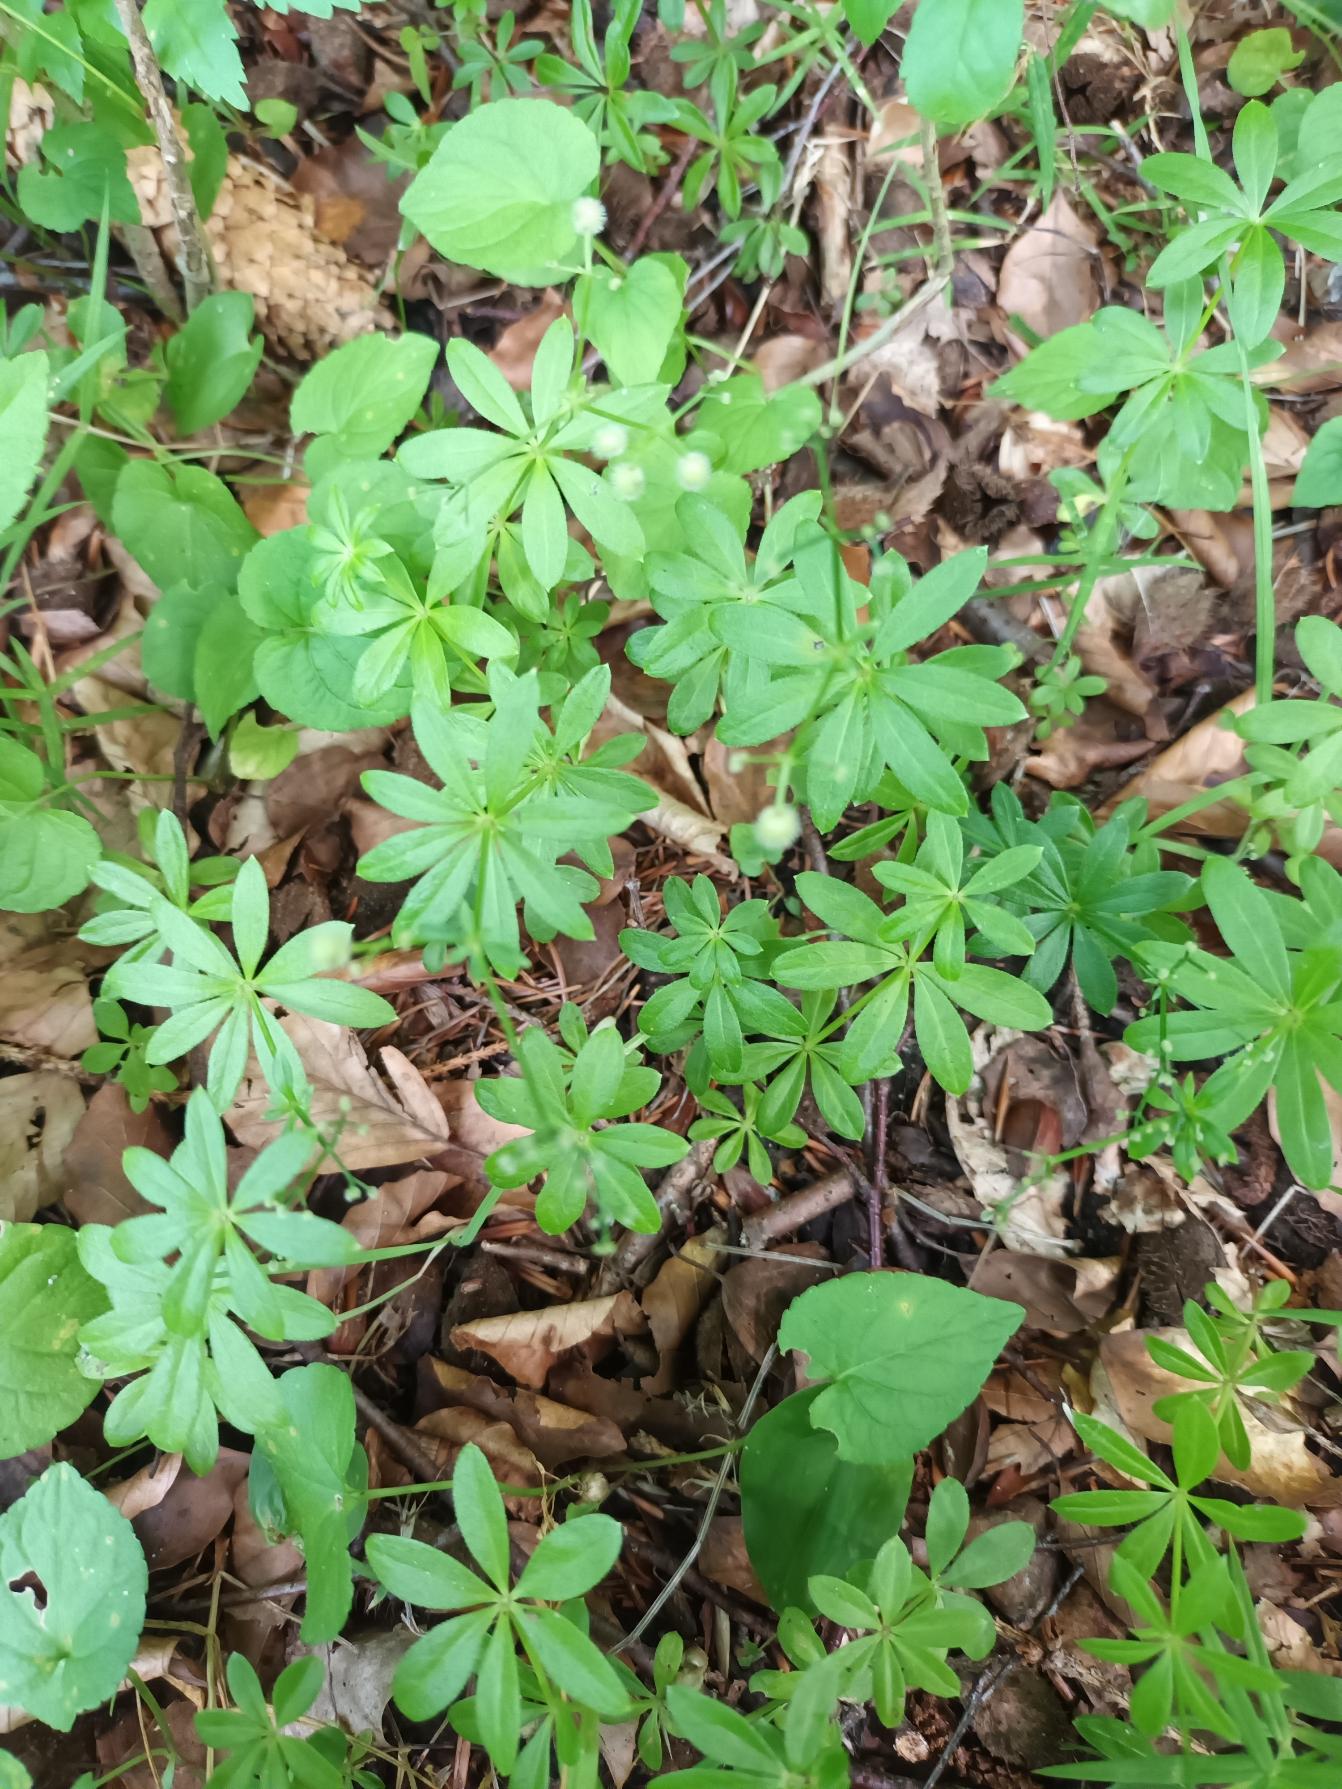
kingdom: Plantae
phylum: Tracheophyta
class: Magnoliopsida
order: Gentianales
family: Rubiaceae
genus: Galium
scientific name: Galium odoratum
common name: Skovmærke
